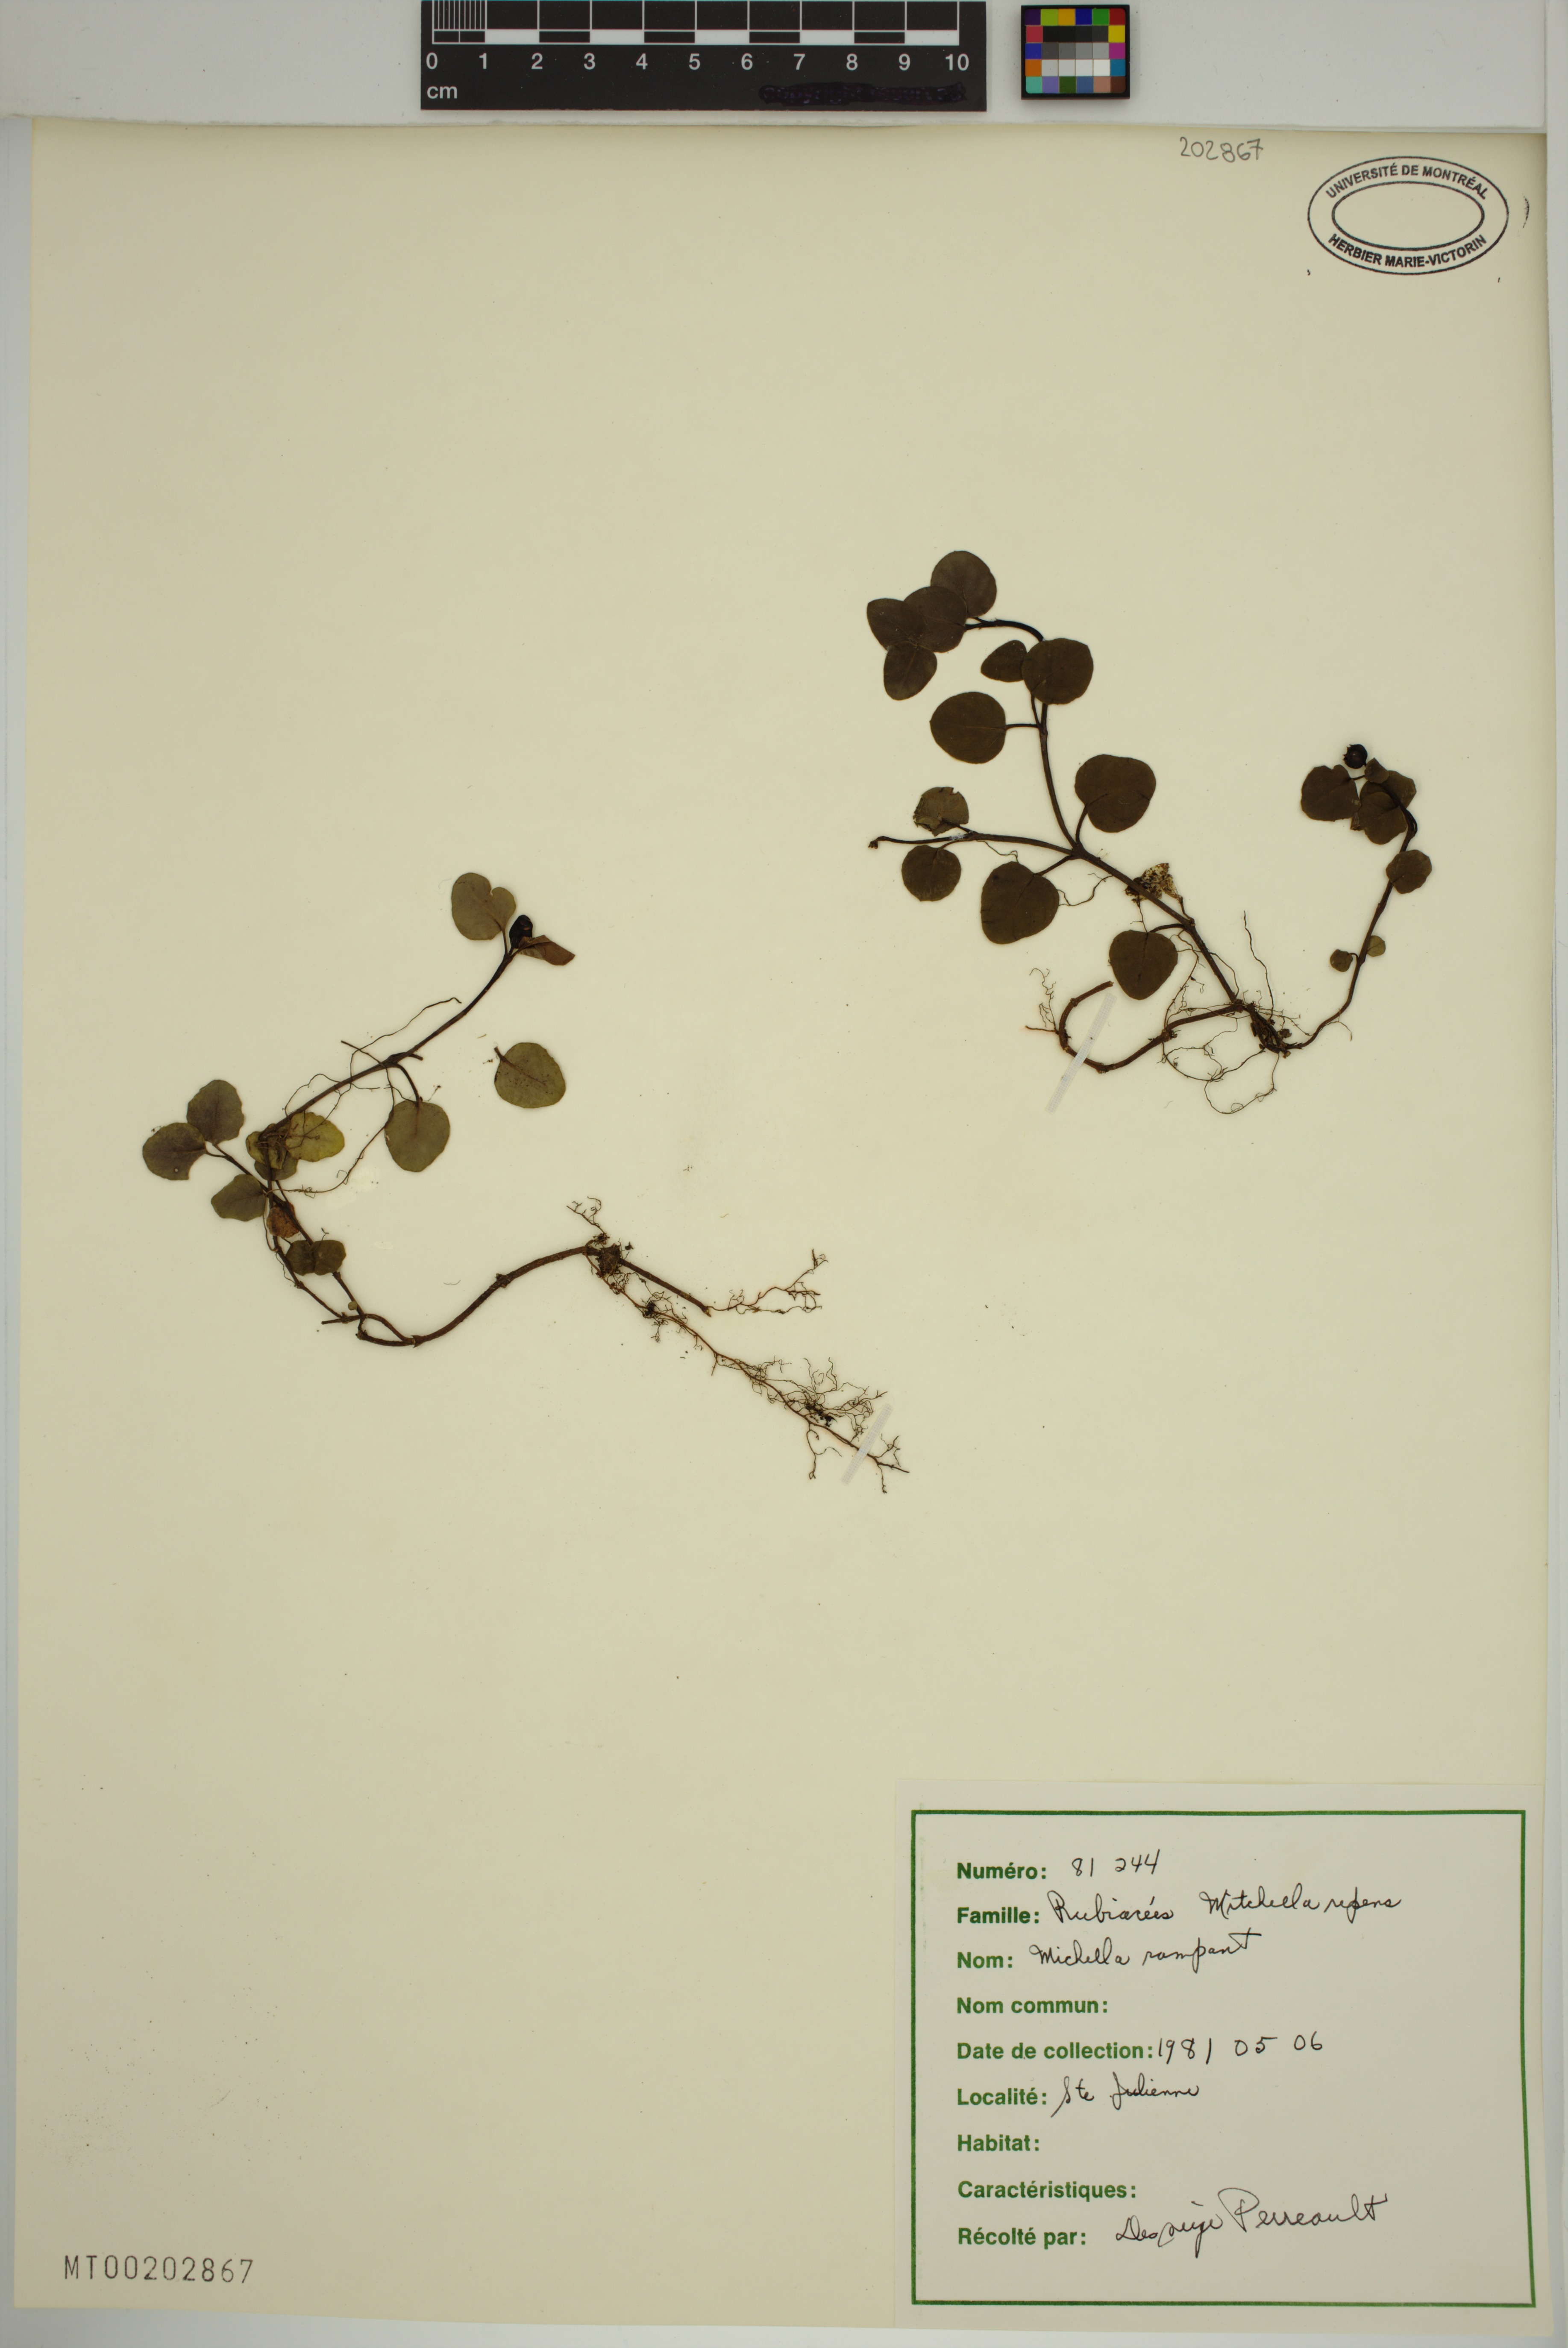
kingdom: Plantae
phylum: Tracheophyta
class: Magnoliopsida
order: Gentianales
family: Rubiaceae
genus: Mitchella
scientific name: Mitchella repens
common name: Partridge-berry
